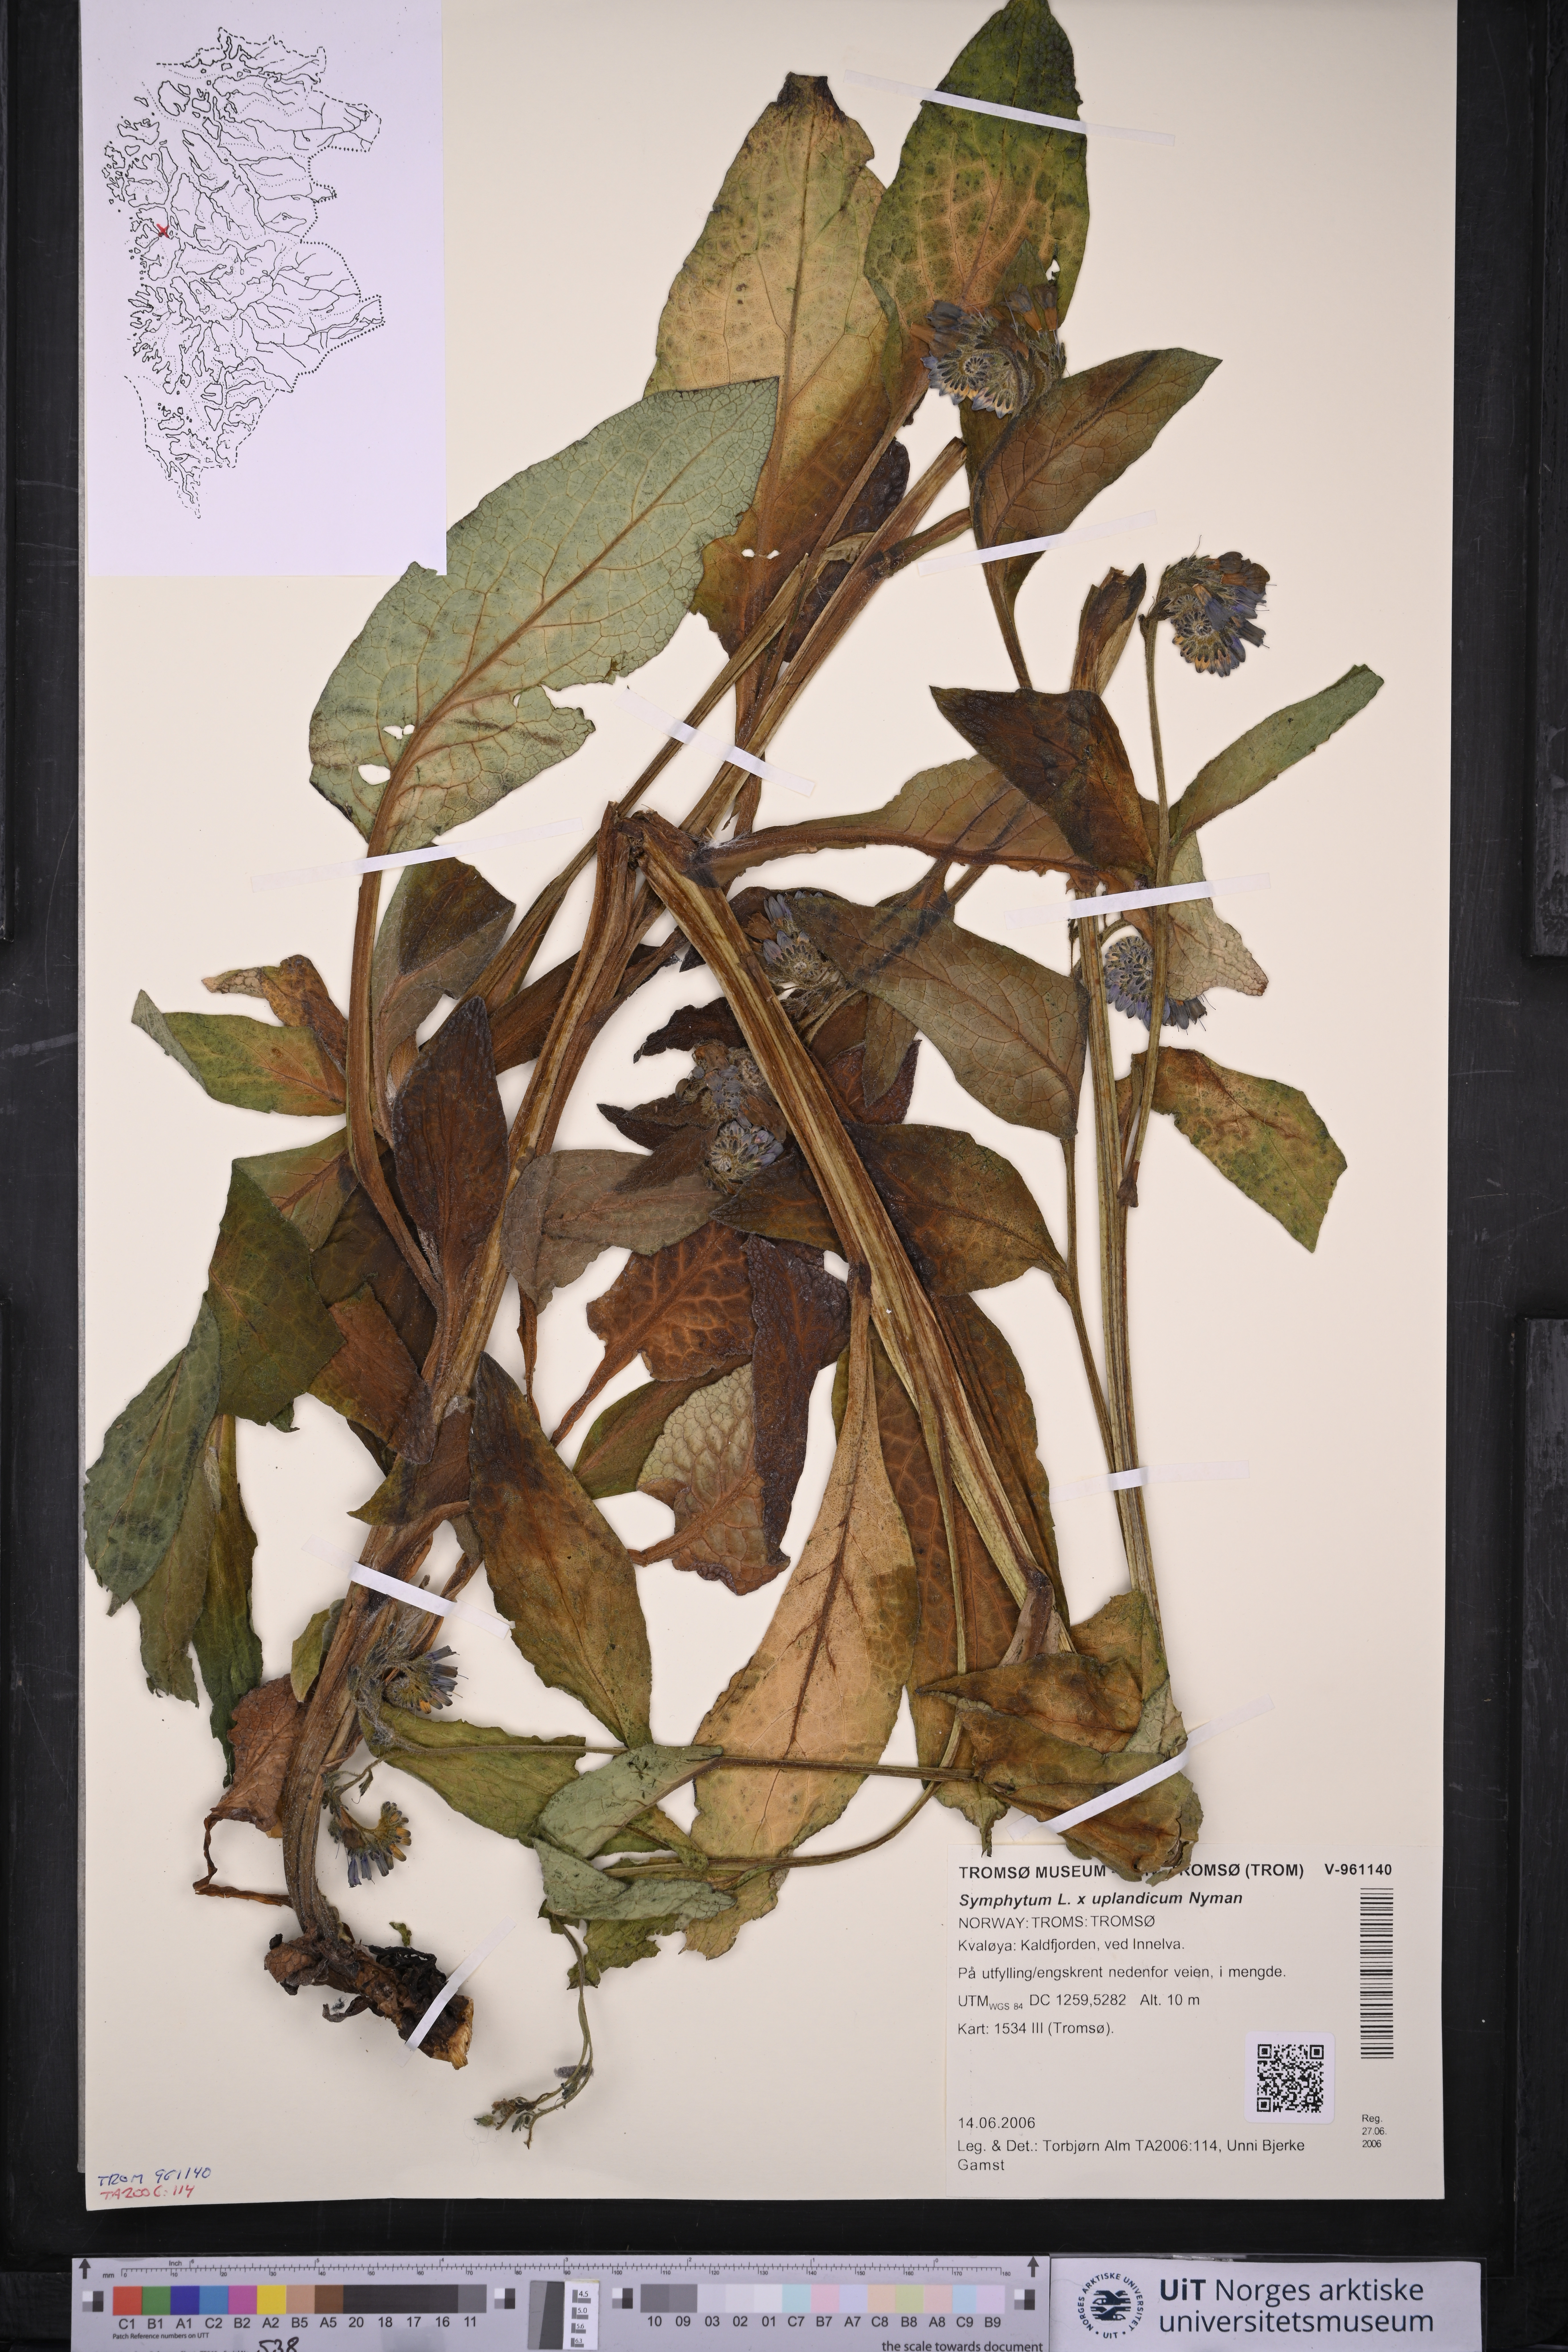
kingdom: Plantae
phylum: Tracheophyta
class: Magnoliopsida
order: Boraginales
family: Boraginaceae
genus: Symphytum
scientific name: Symphytum asperum
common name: Prickly comfrey
